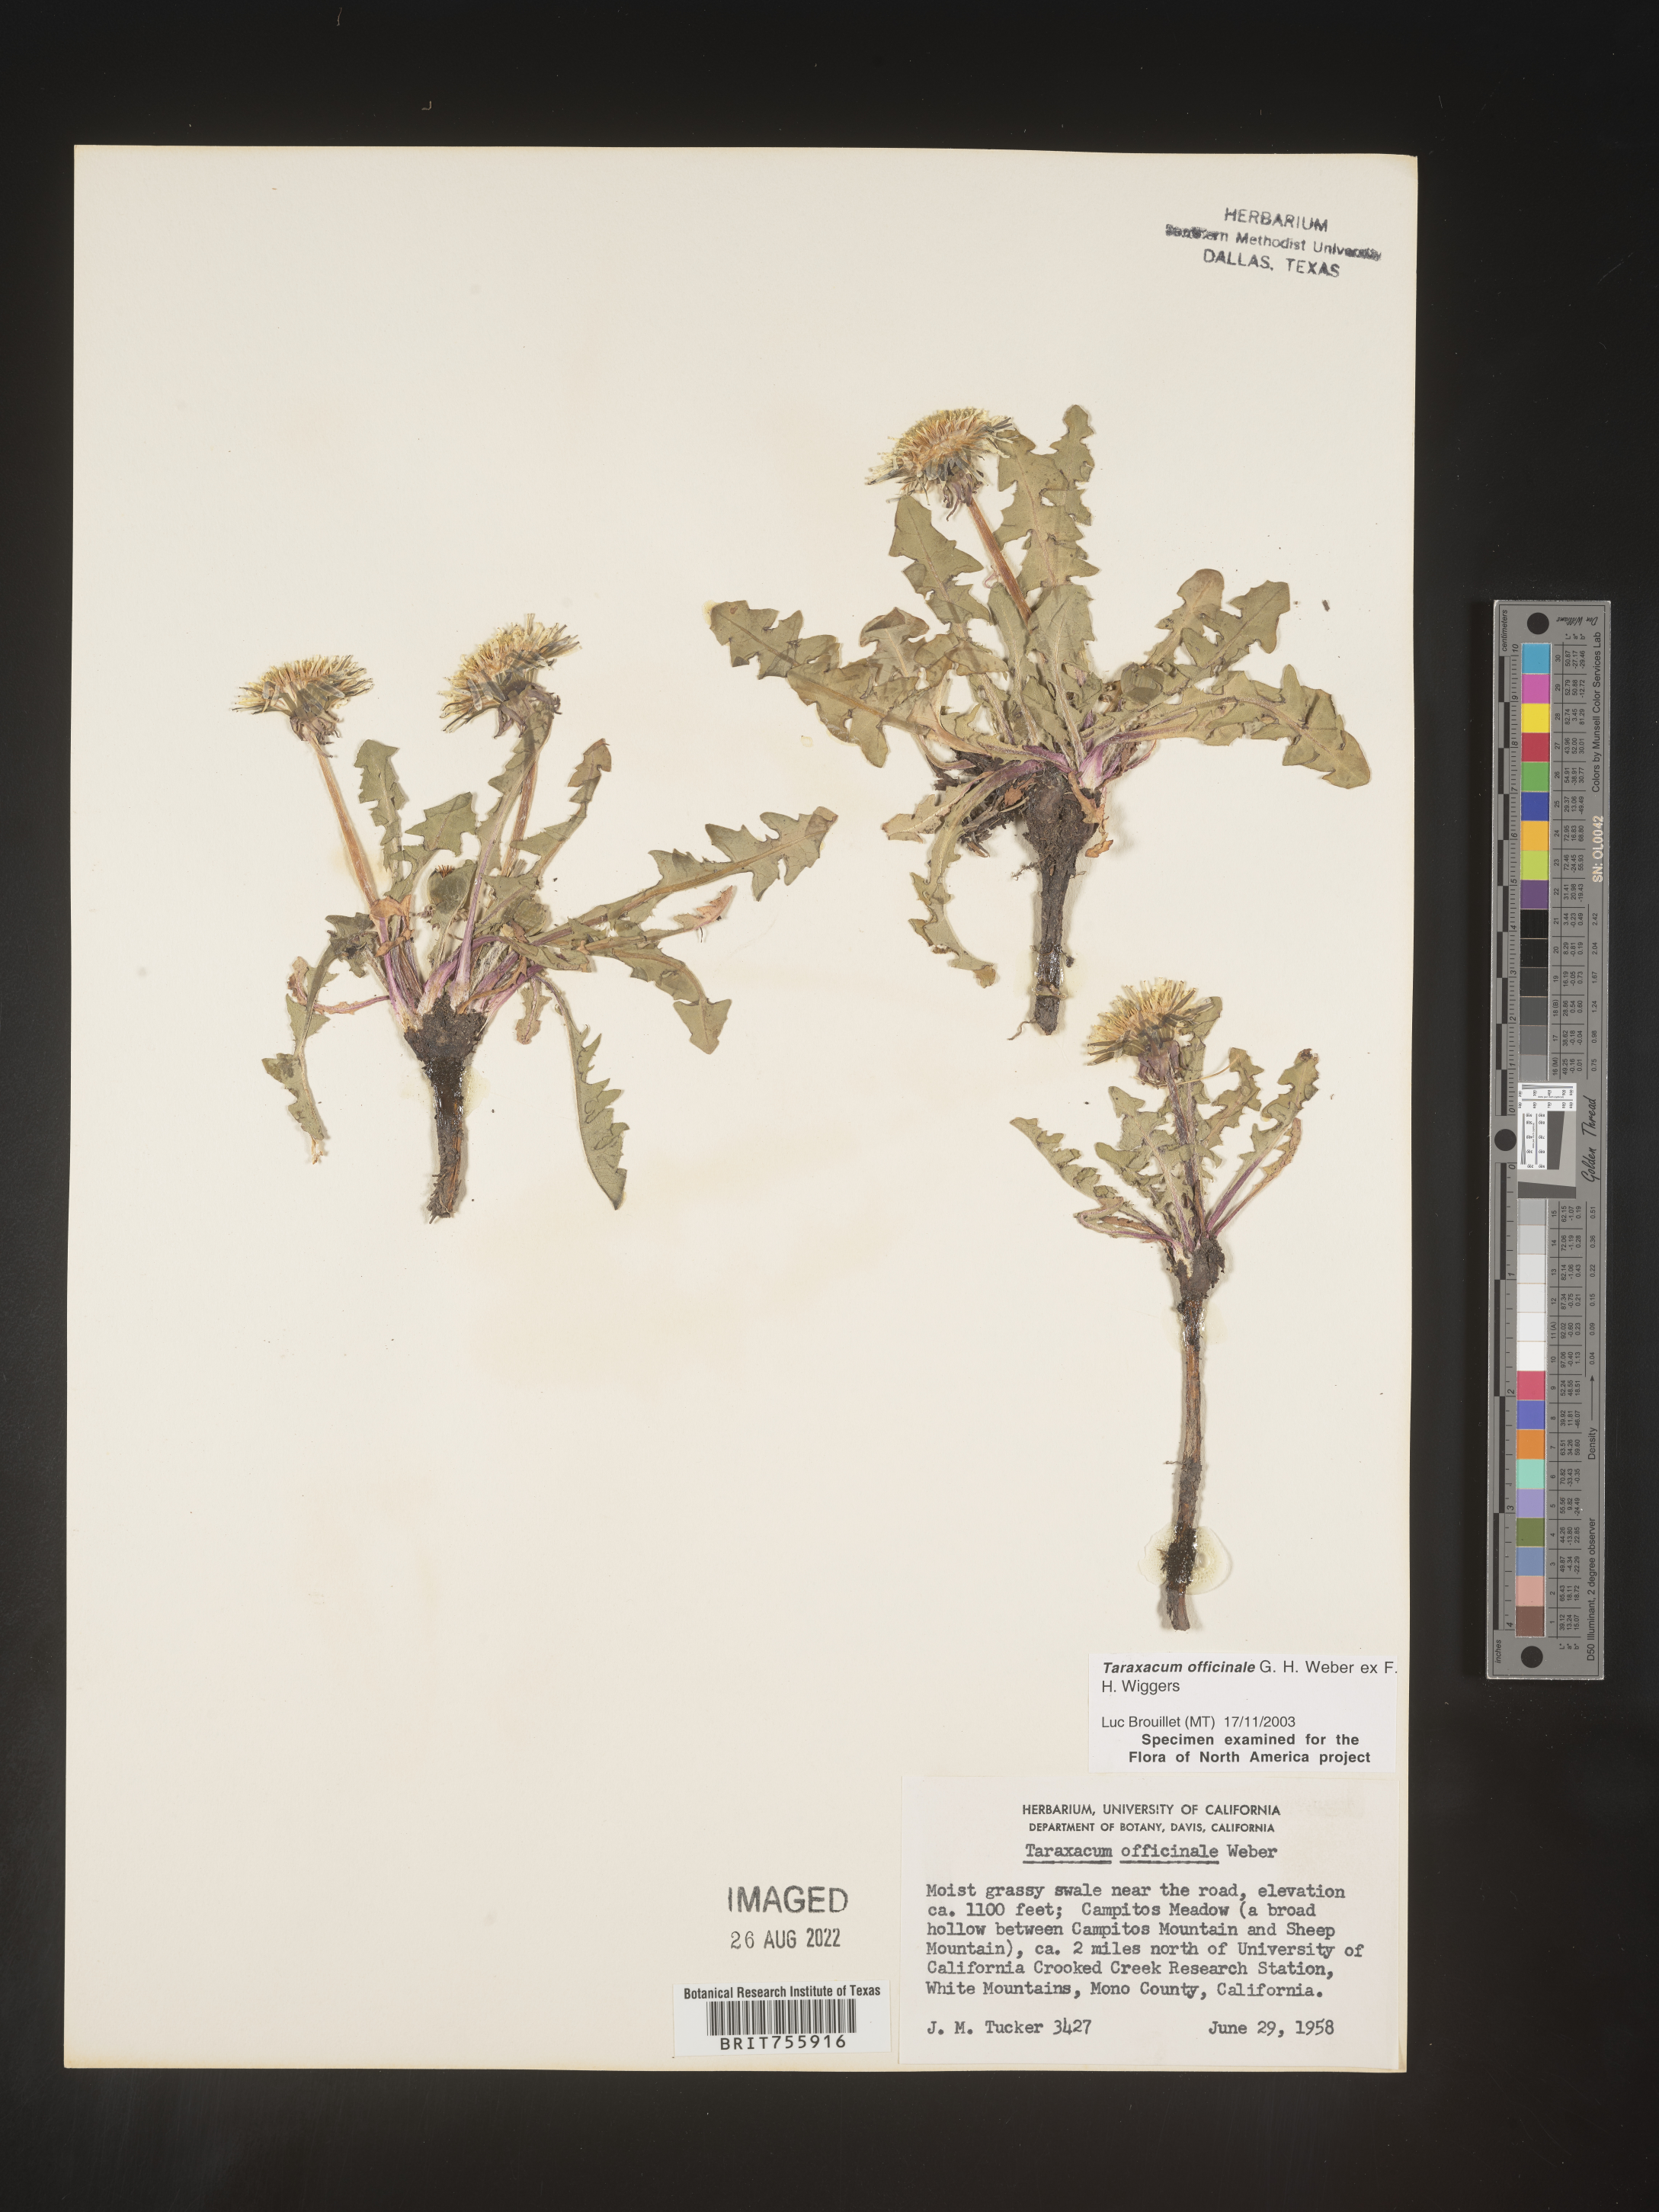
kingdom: Plantae
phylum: Tracheophyta
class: Magnoliopsida
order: Asterales
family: Asteraceae
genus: Taraxacum
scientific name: Taraxacum officinale
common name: Common dandelion
